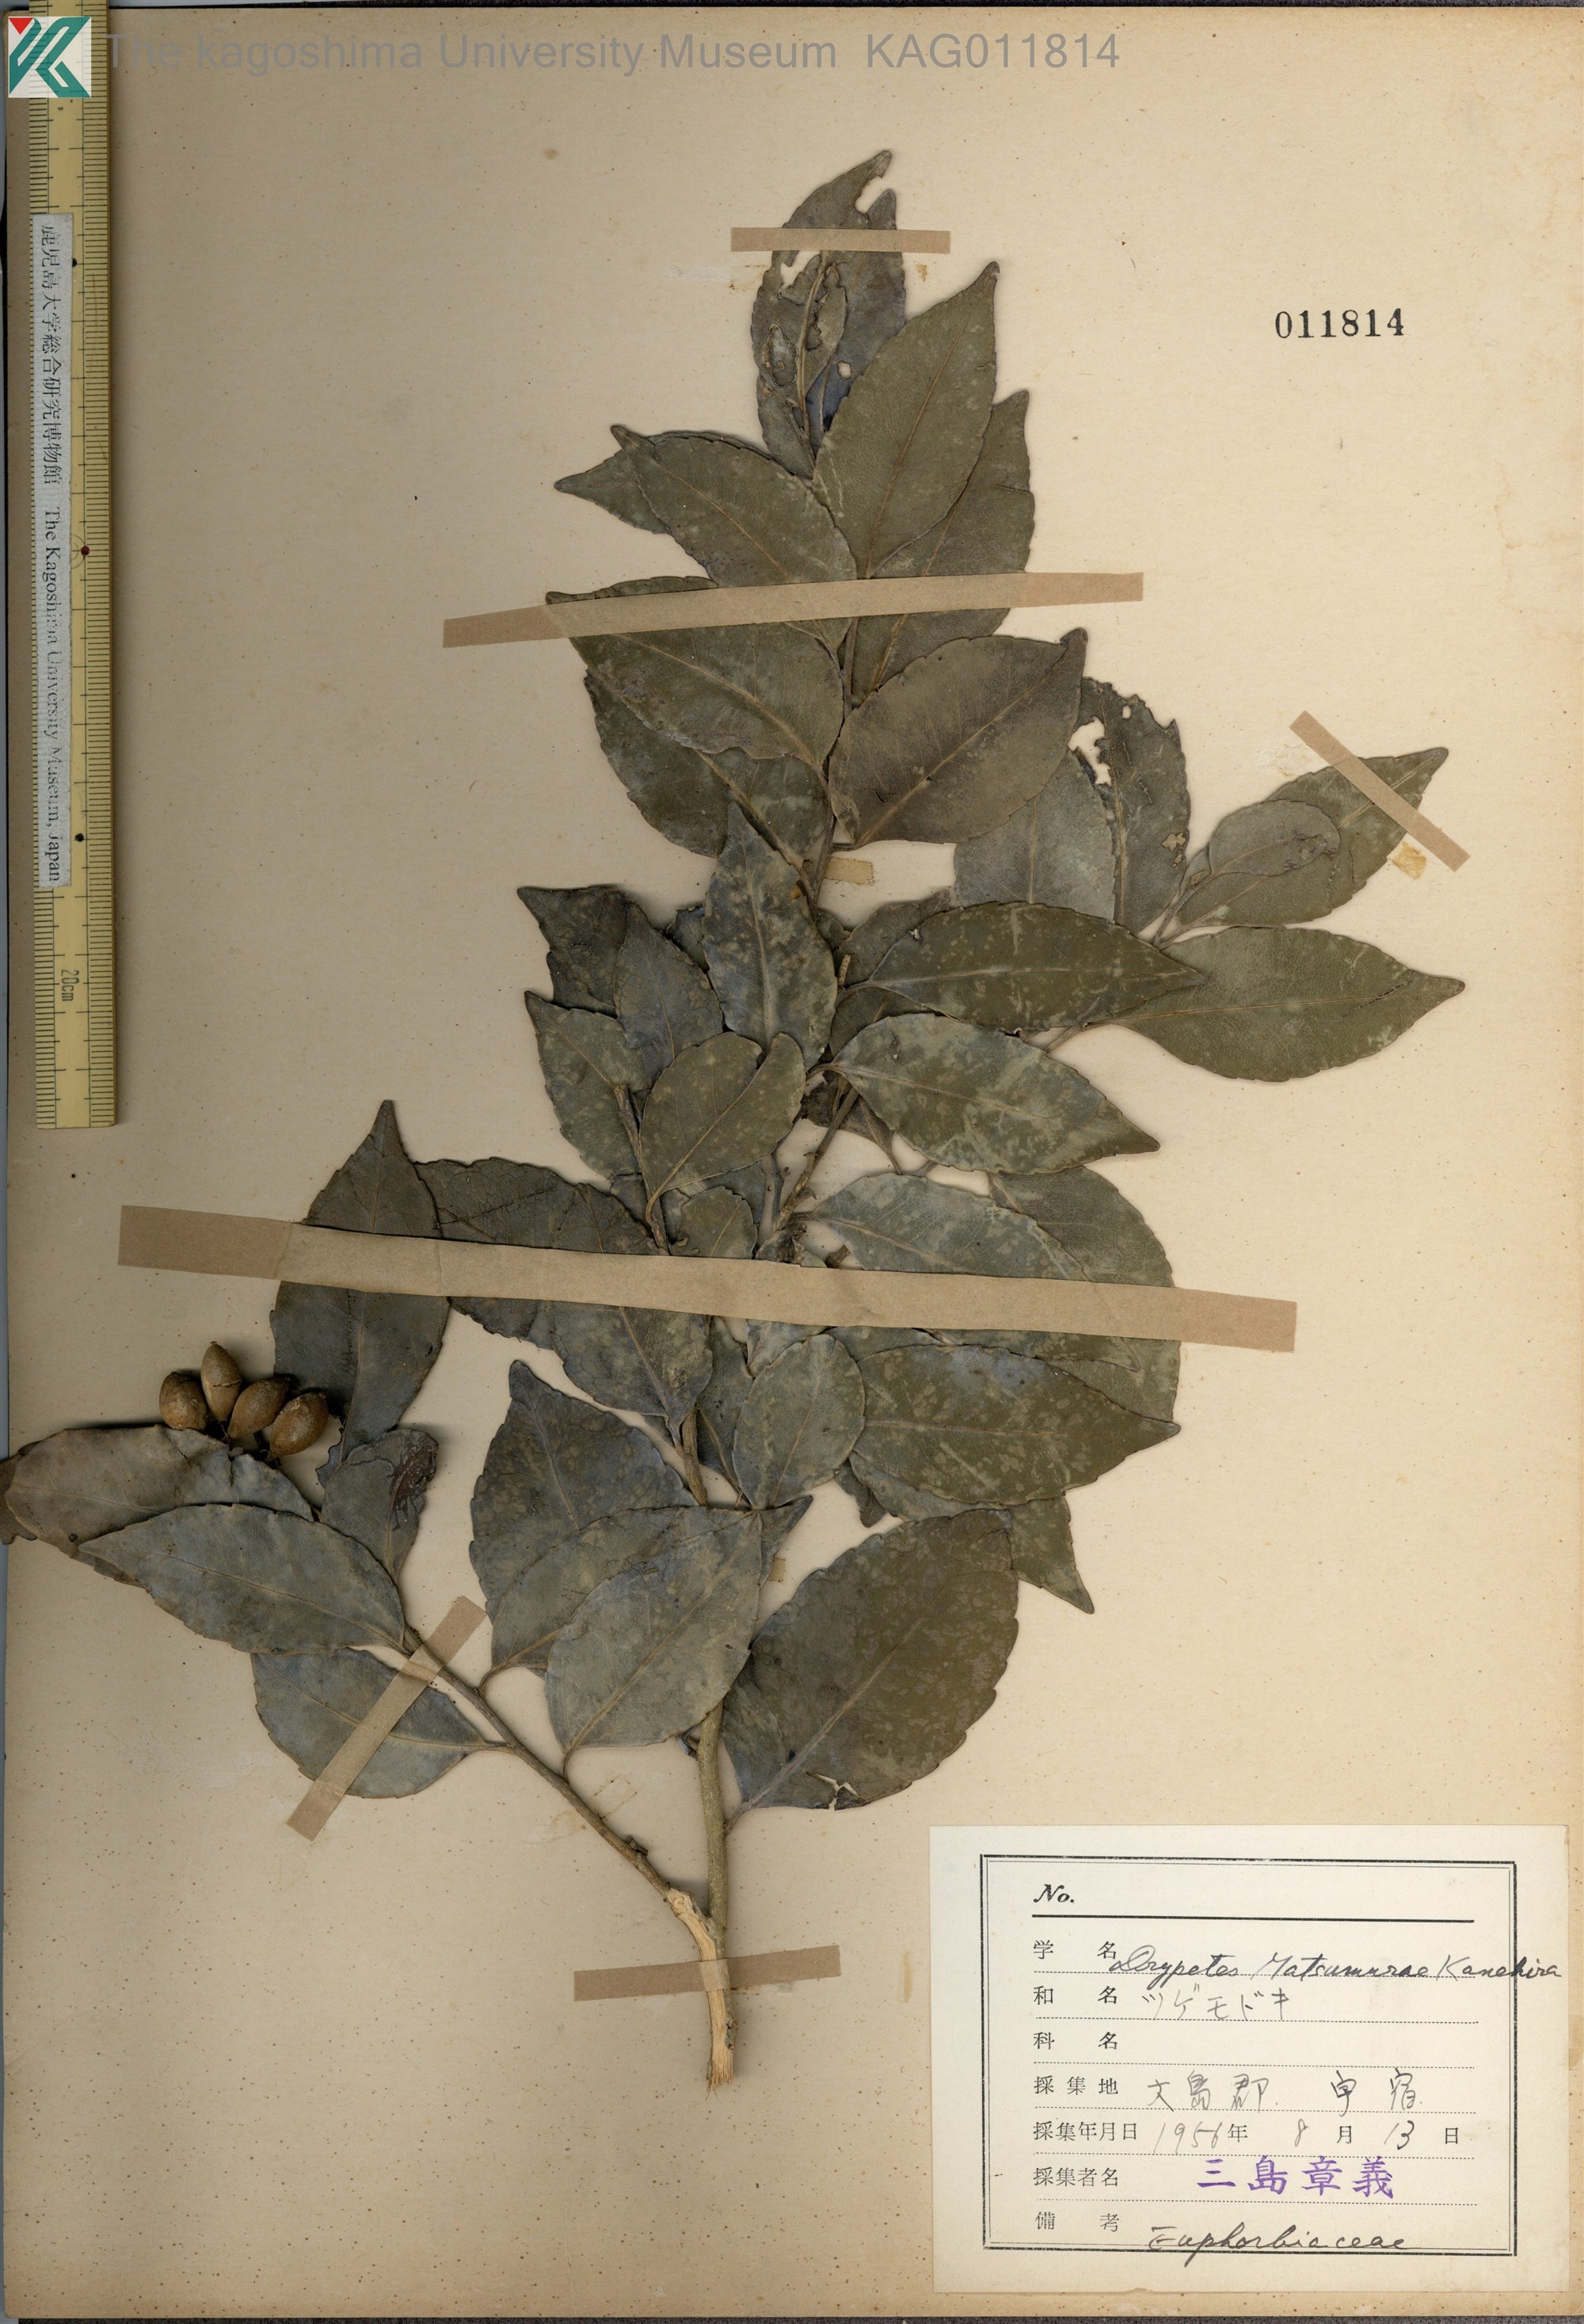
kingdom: Plantae
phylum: Tracheophyta
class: Magnoliopsida
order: Malpighiales
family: Putranjivaceae
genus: Putranjiva
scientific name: Putranjiva matsumurae
